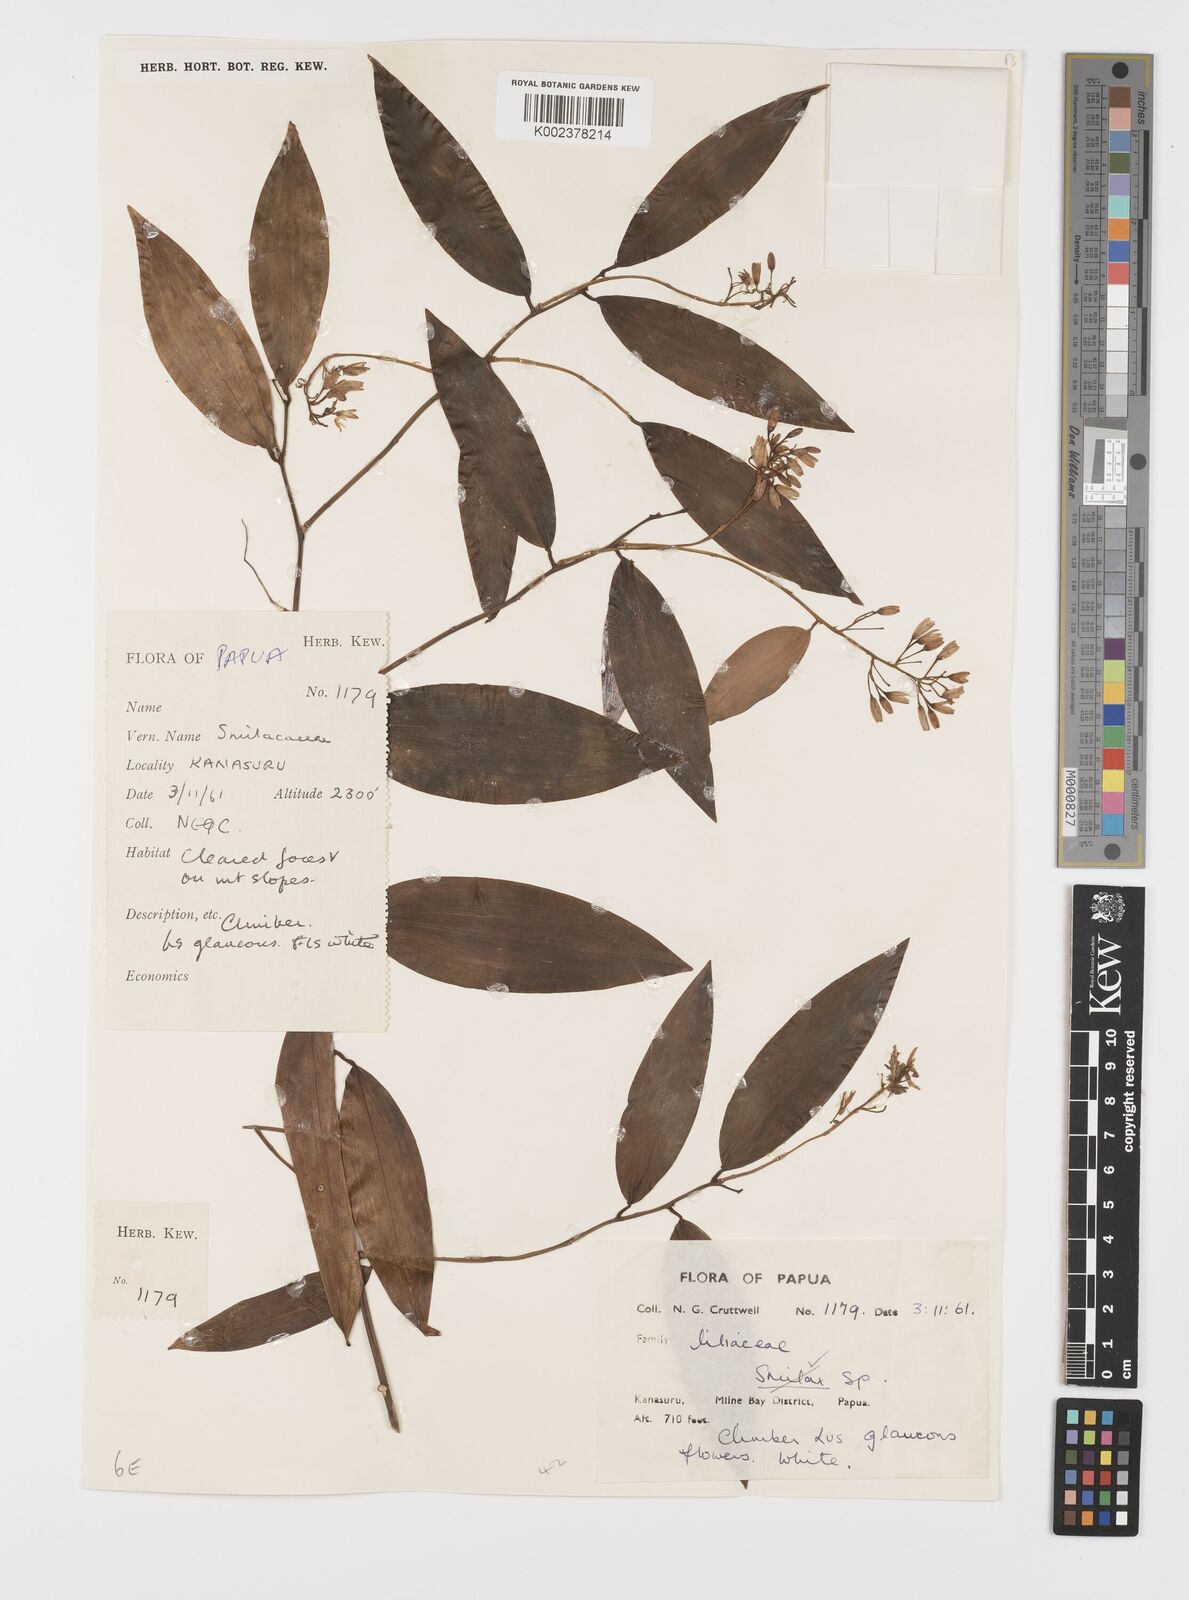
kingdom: Plantae
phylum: Tracheophyta
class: Liliopsida
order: Liliales
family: Smilacaceae
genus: Smilax
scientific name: Smilax
